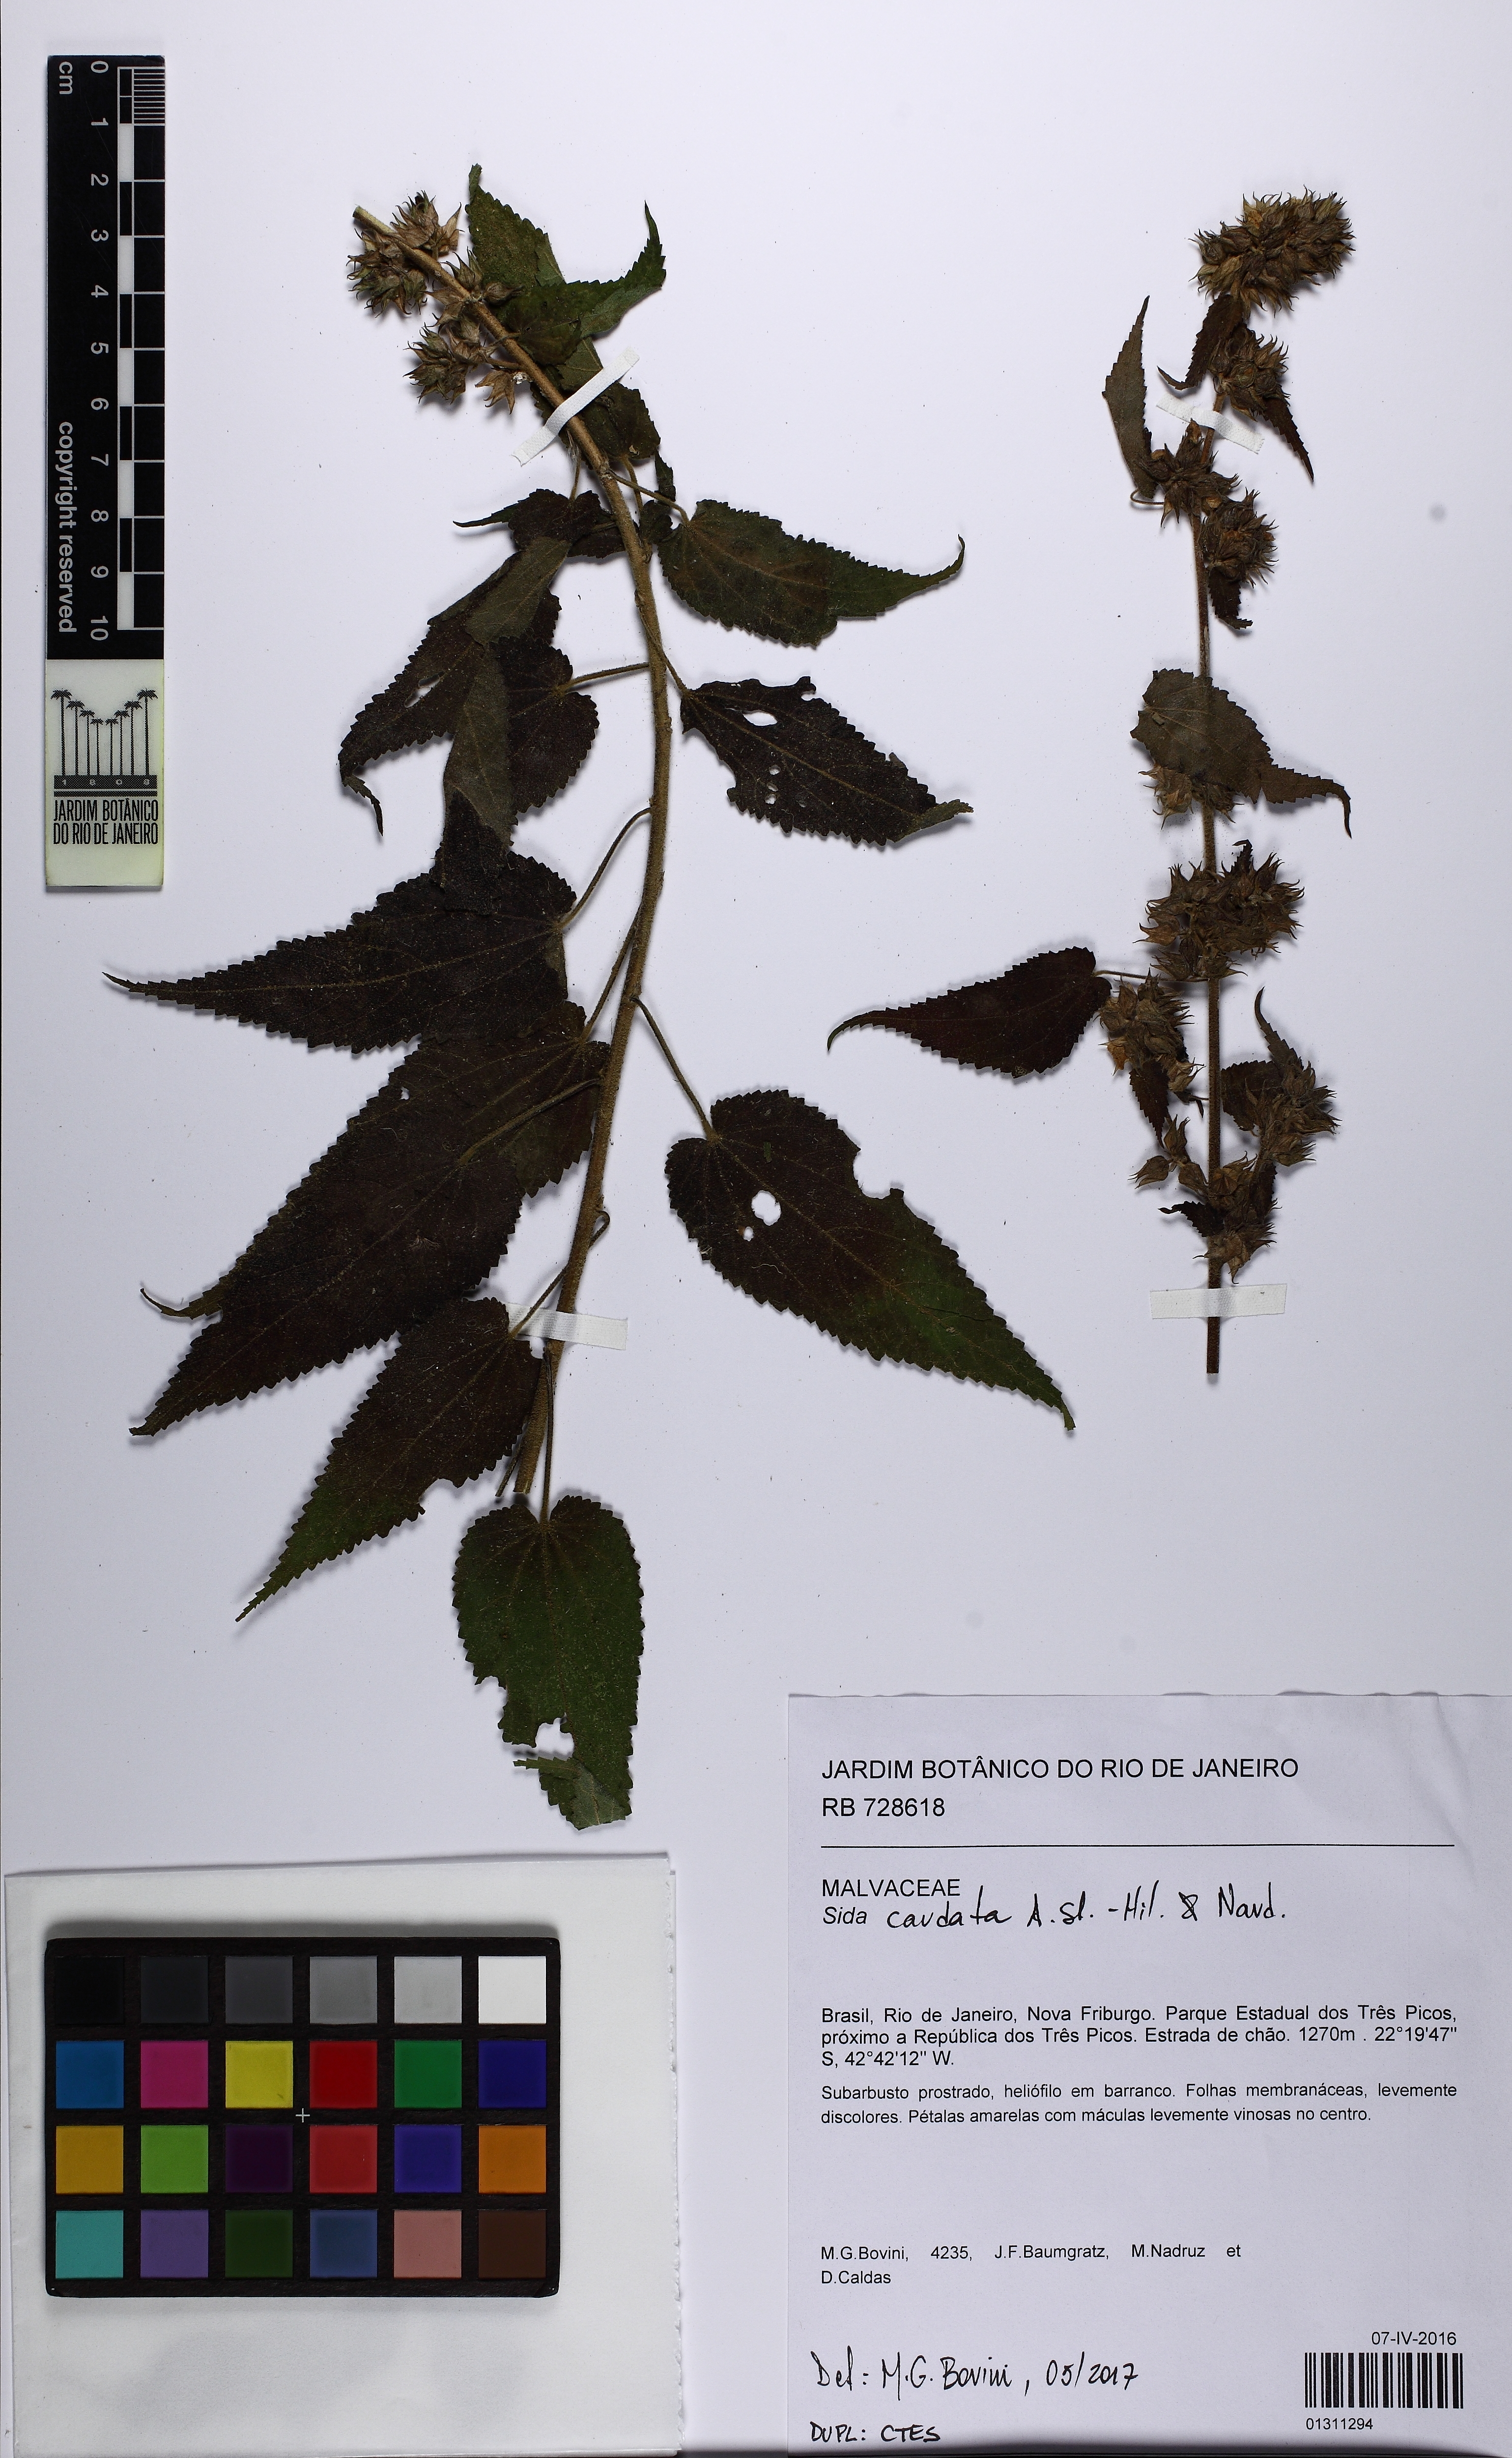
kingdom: Plantae
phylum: Tracheophyta
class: Magnoliopsida
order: Malvales
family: Malvaceae
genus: Sida
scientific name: Sida caudata
